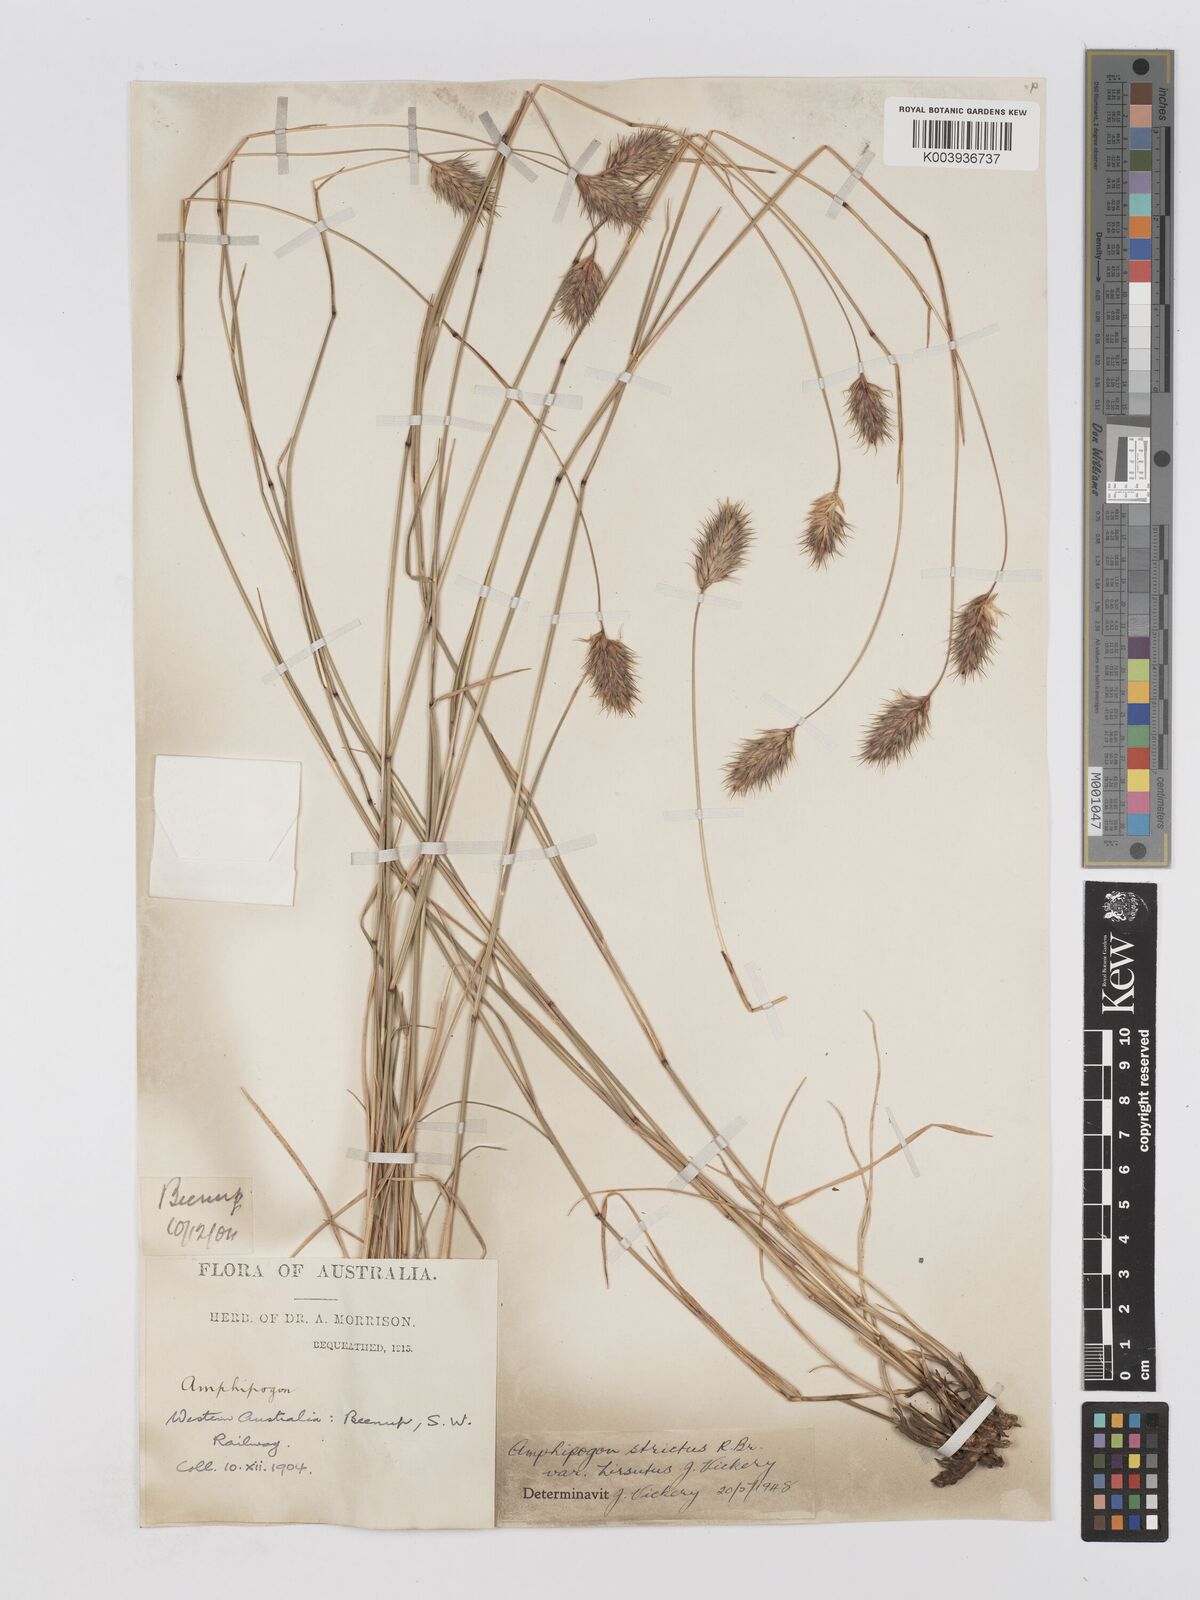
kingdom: Plantae
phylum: Tracheophyta
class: Liliopsida
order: Poales
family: Poaceae
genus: Amphipogon
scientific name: Amphipogon strictus
